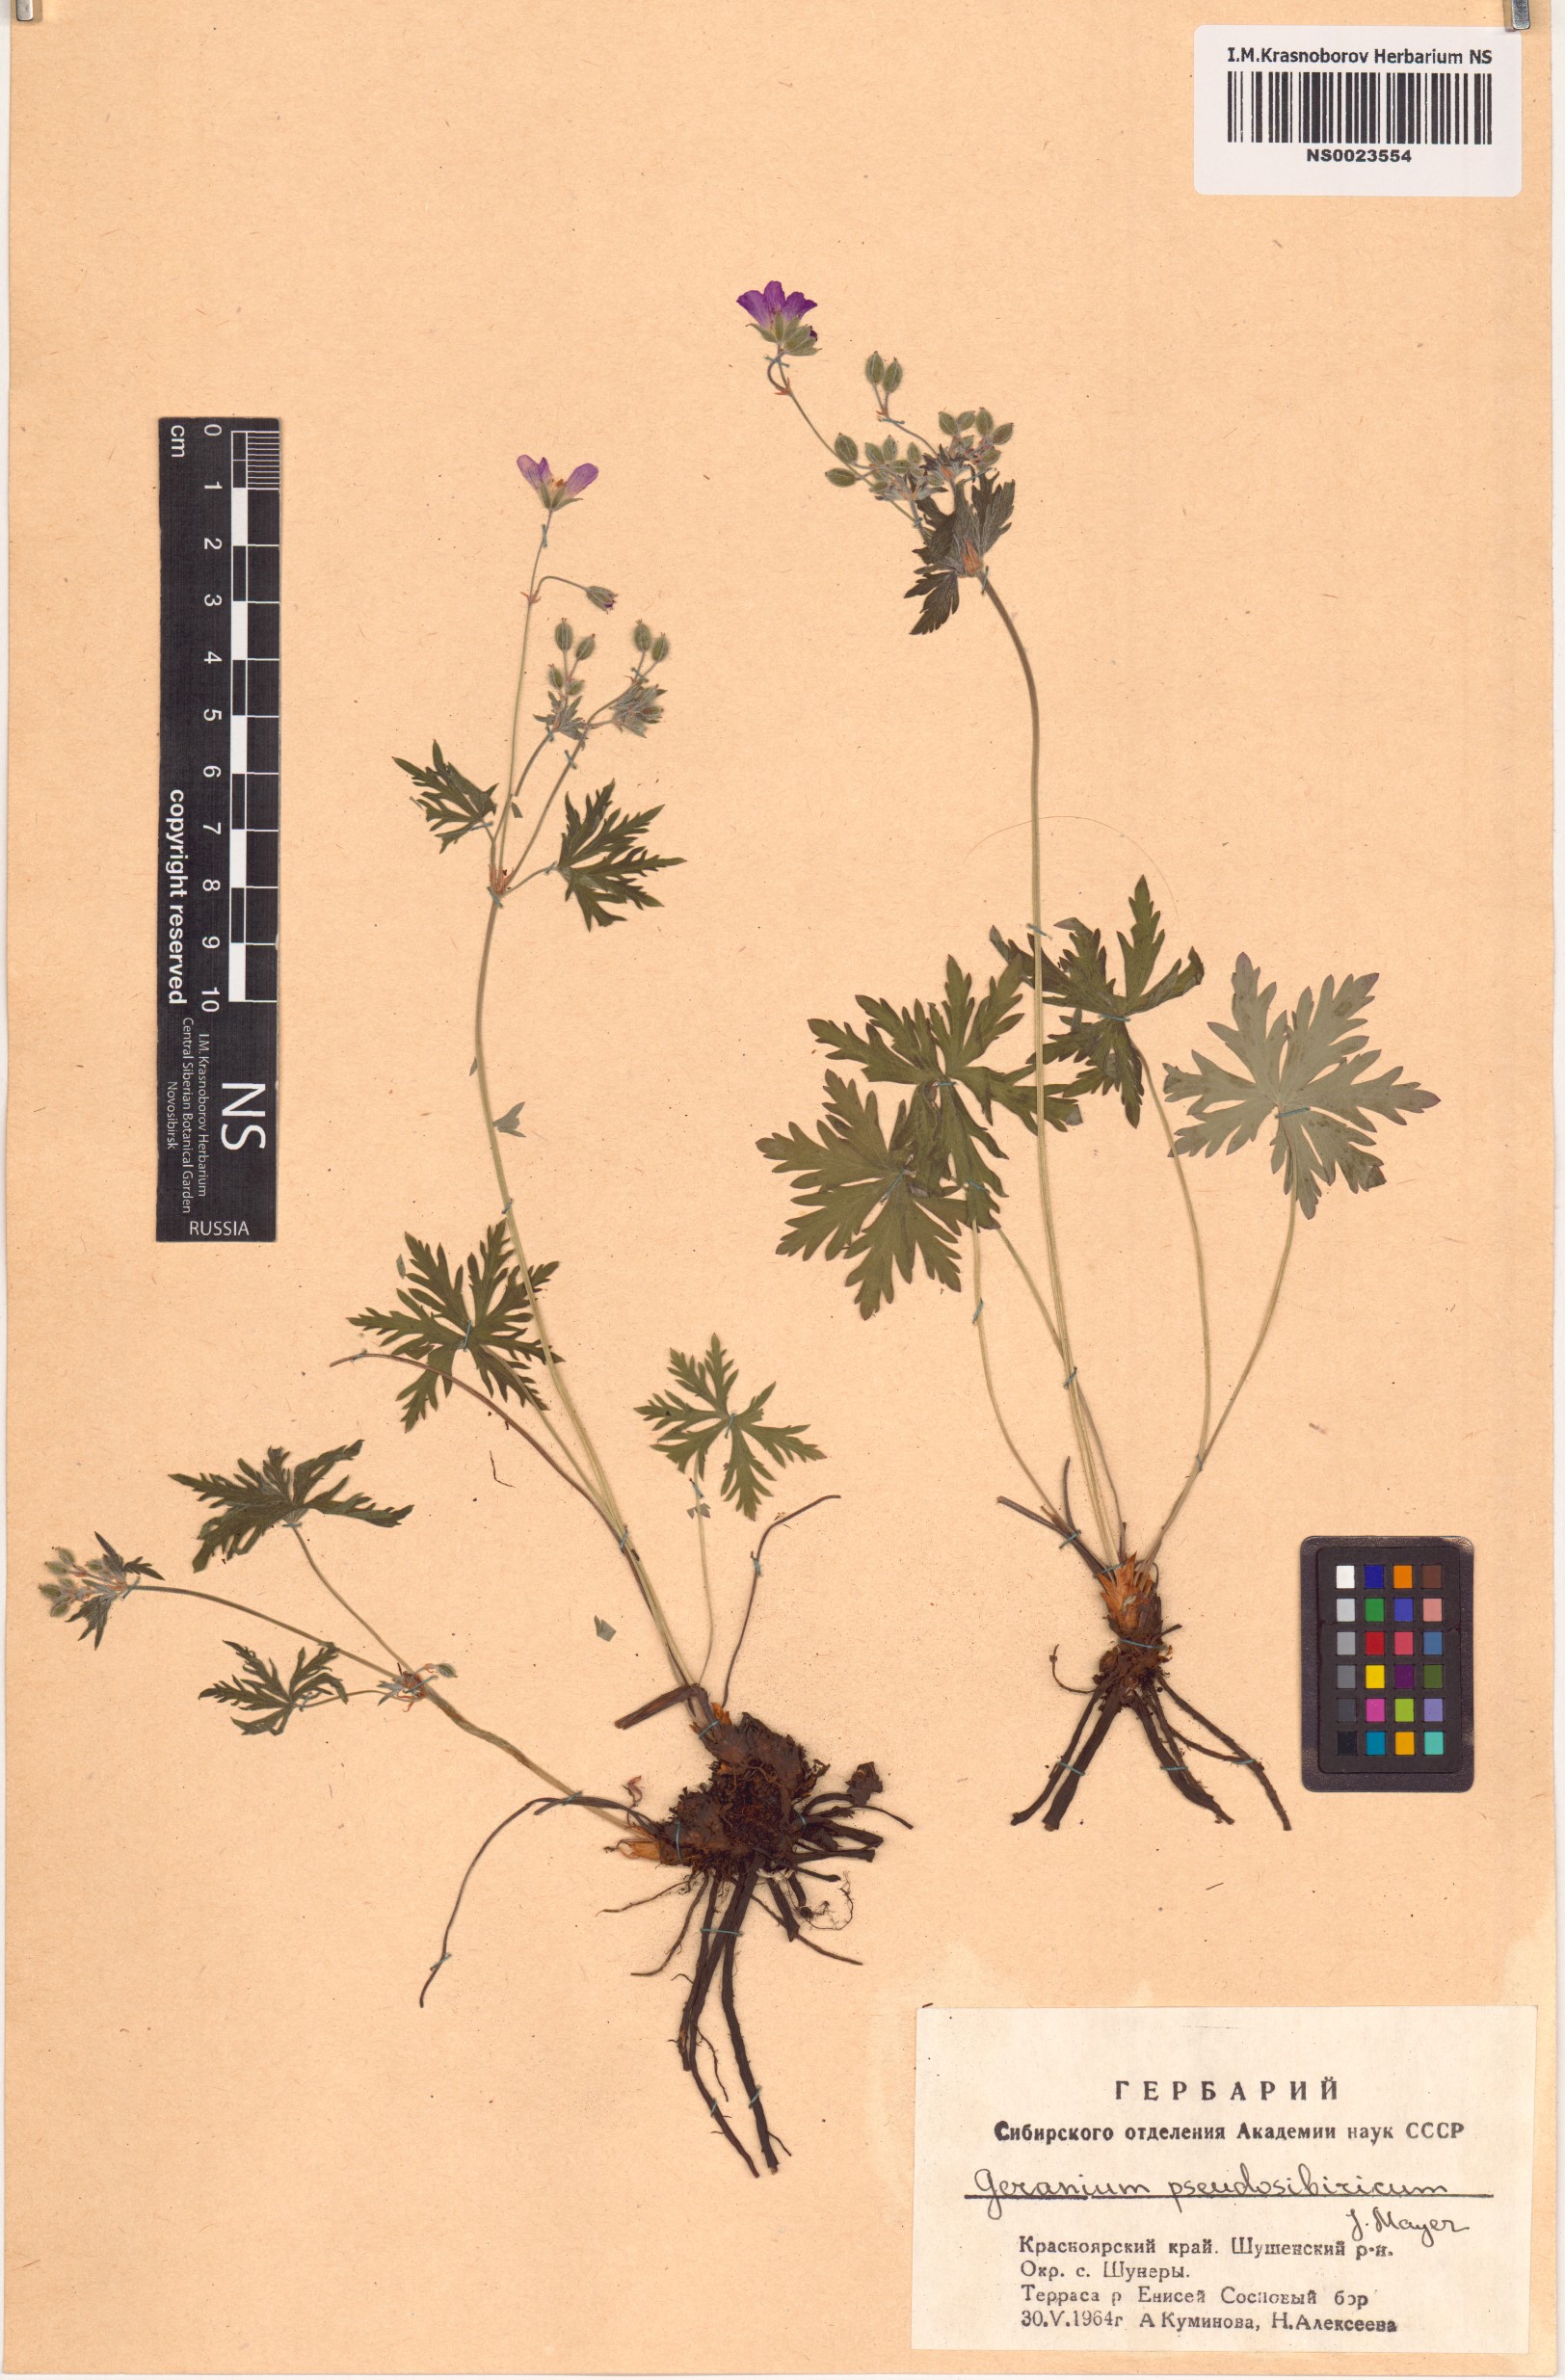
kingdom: Plantae
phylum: Tracheophyta
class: Magnoliopsida
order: Geraniales
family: Geraniaceae
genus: Geranium
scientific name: Geranium pseudosibiricum
